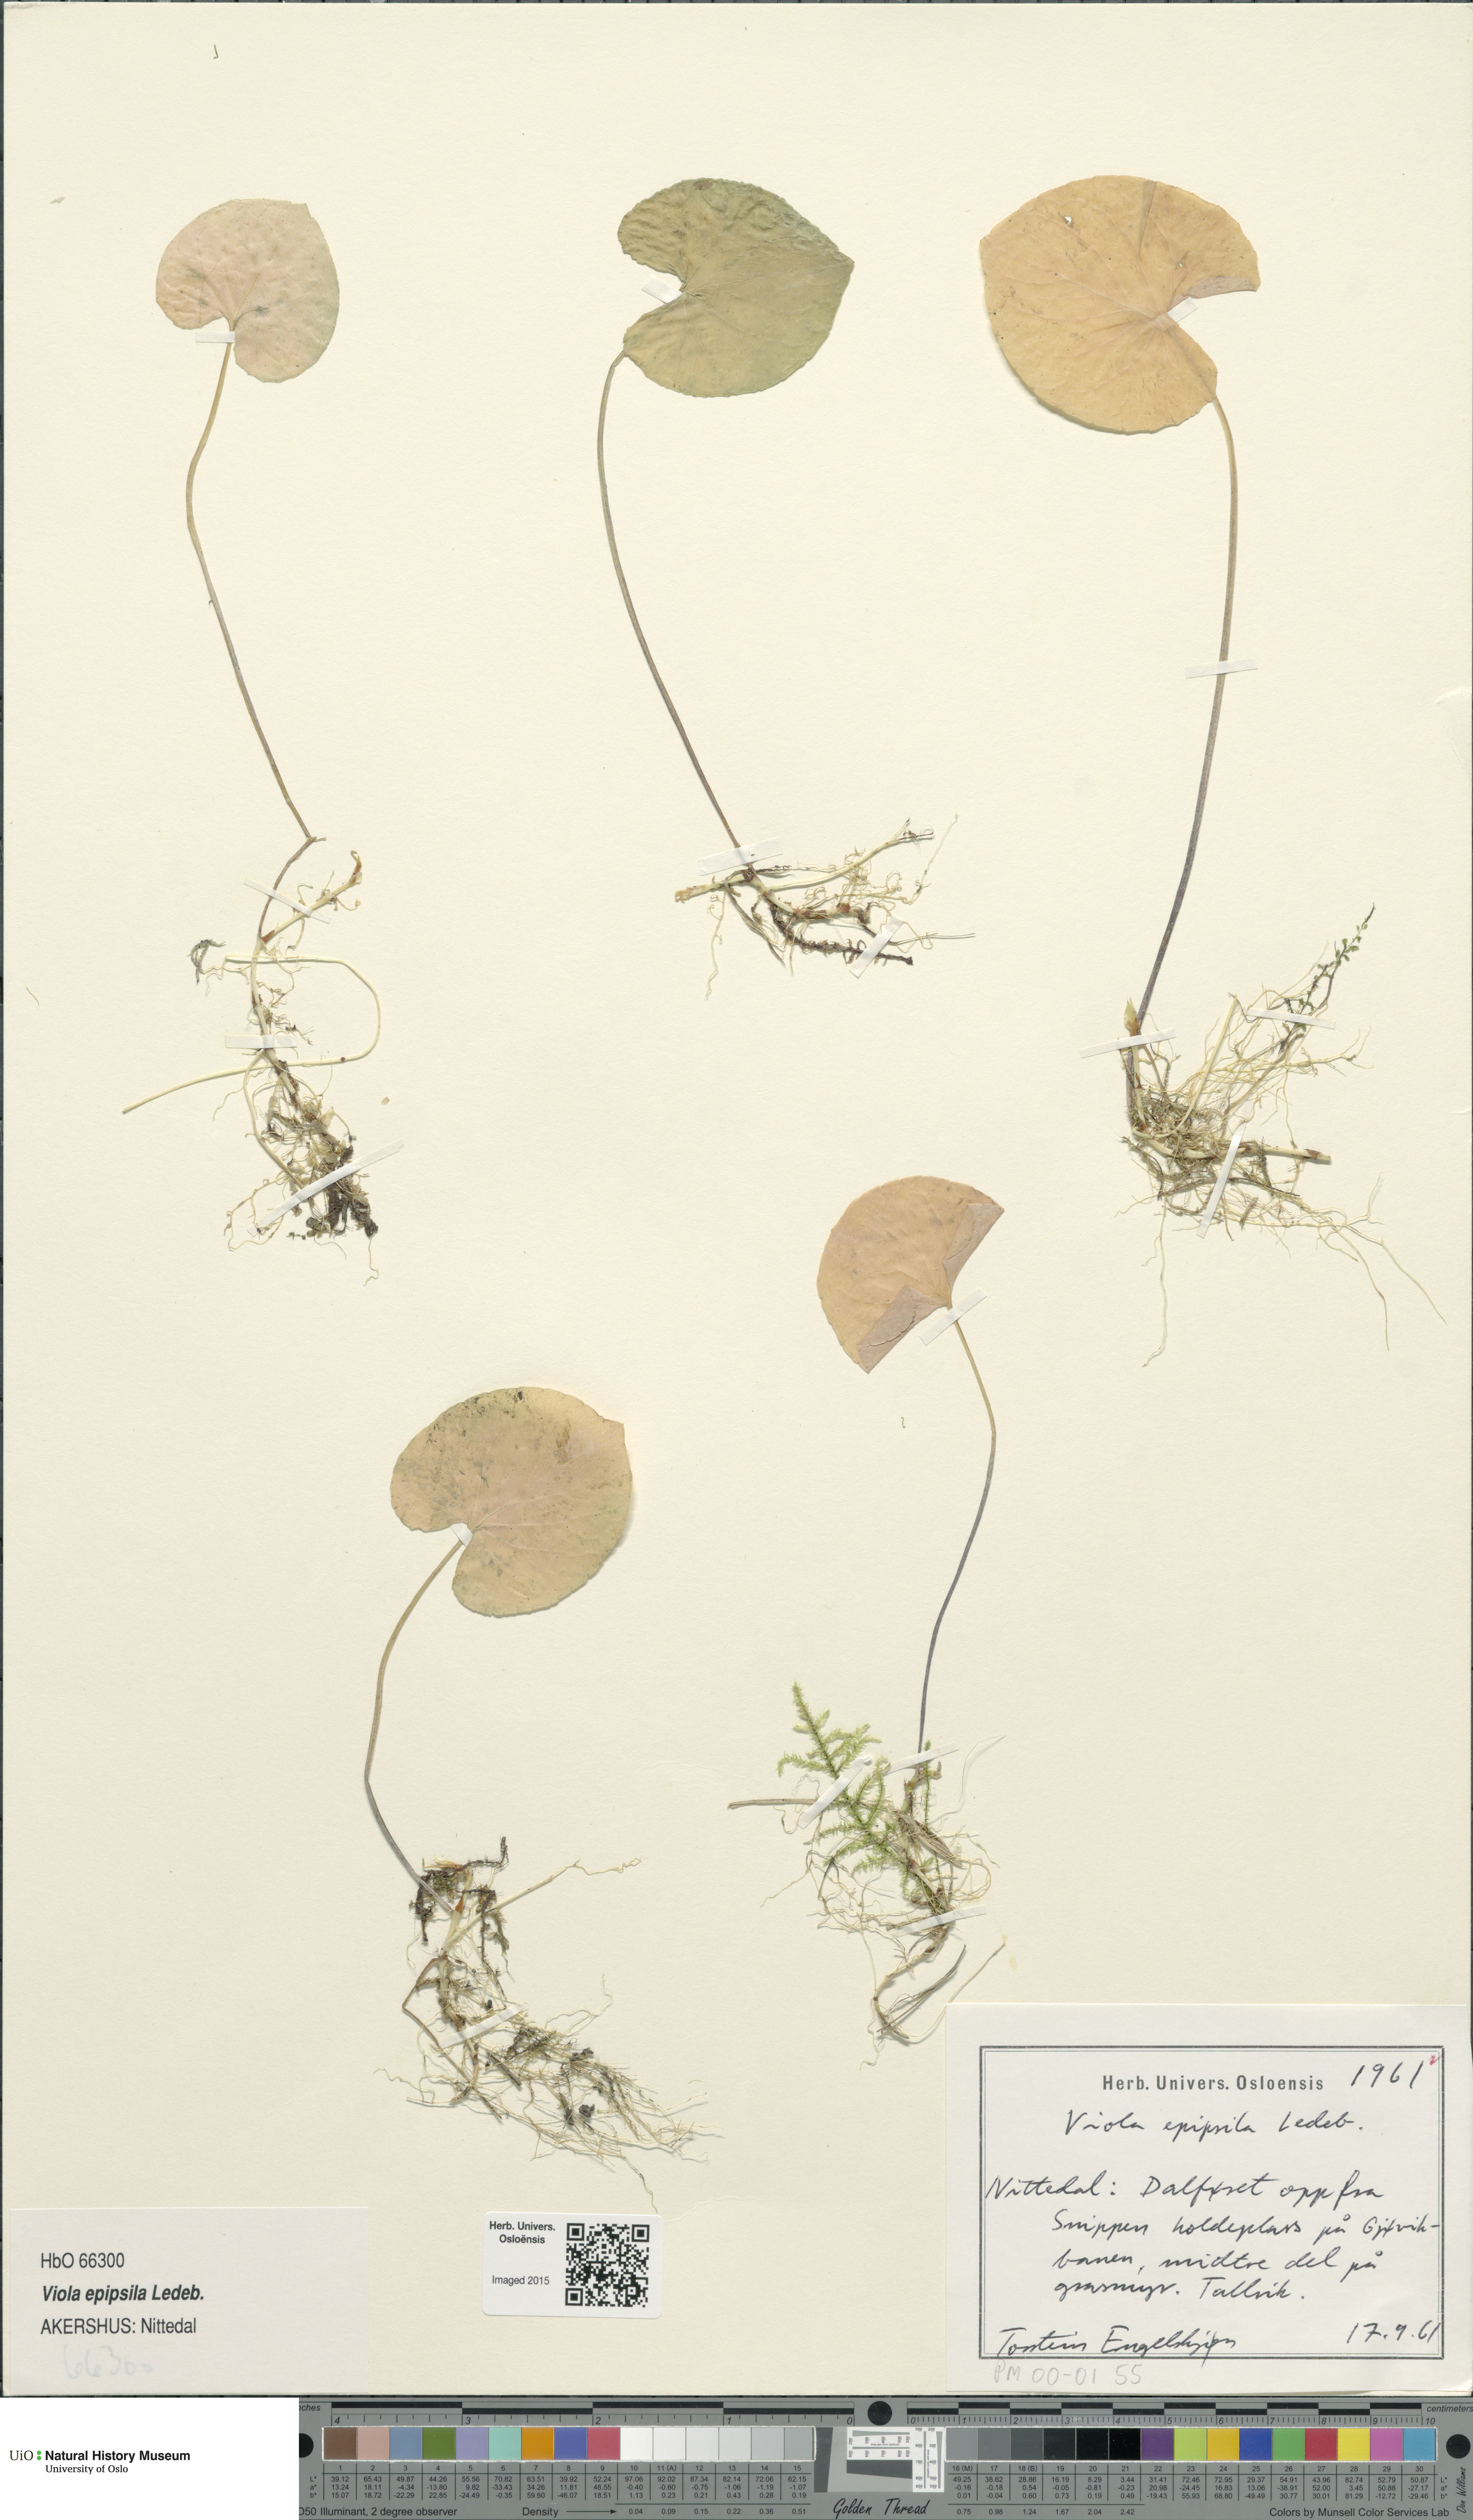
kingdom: Plantae
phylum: Tracheophyta
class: Magnoliopsida
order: Malpighiales
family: Violaceae
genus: Viola
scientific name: Viola epipsila
